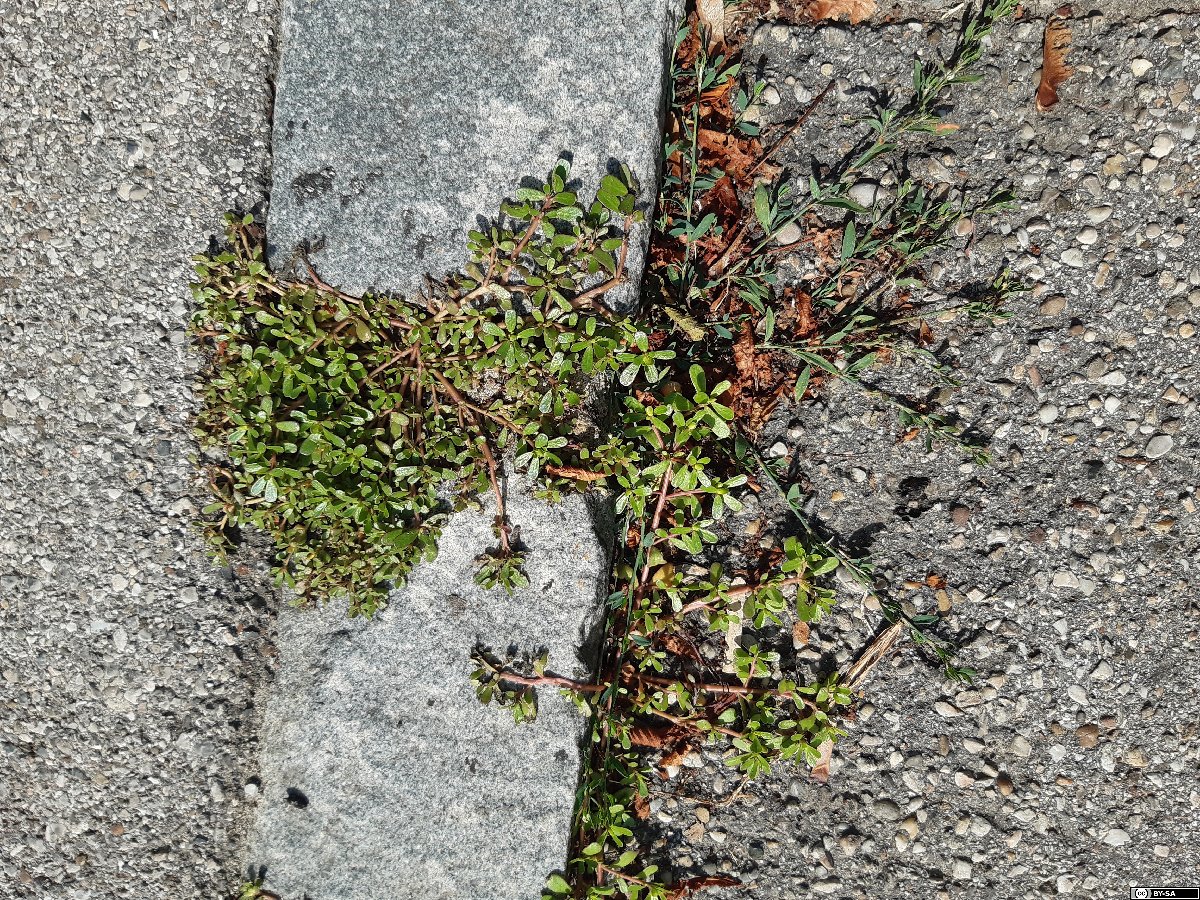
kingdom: Plantae
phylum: Tracheophyta
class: Magnoliopsida
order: Caryophyllales
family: Portulacaceae
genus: Portulaca
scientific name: Portulaca oleracea
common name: Common purslane
